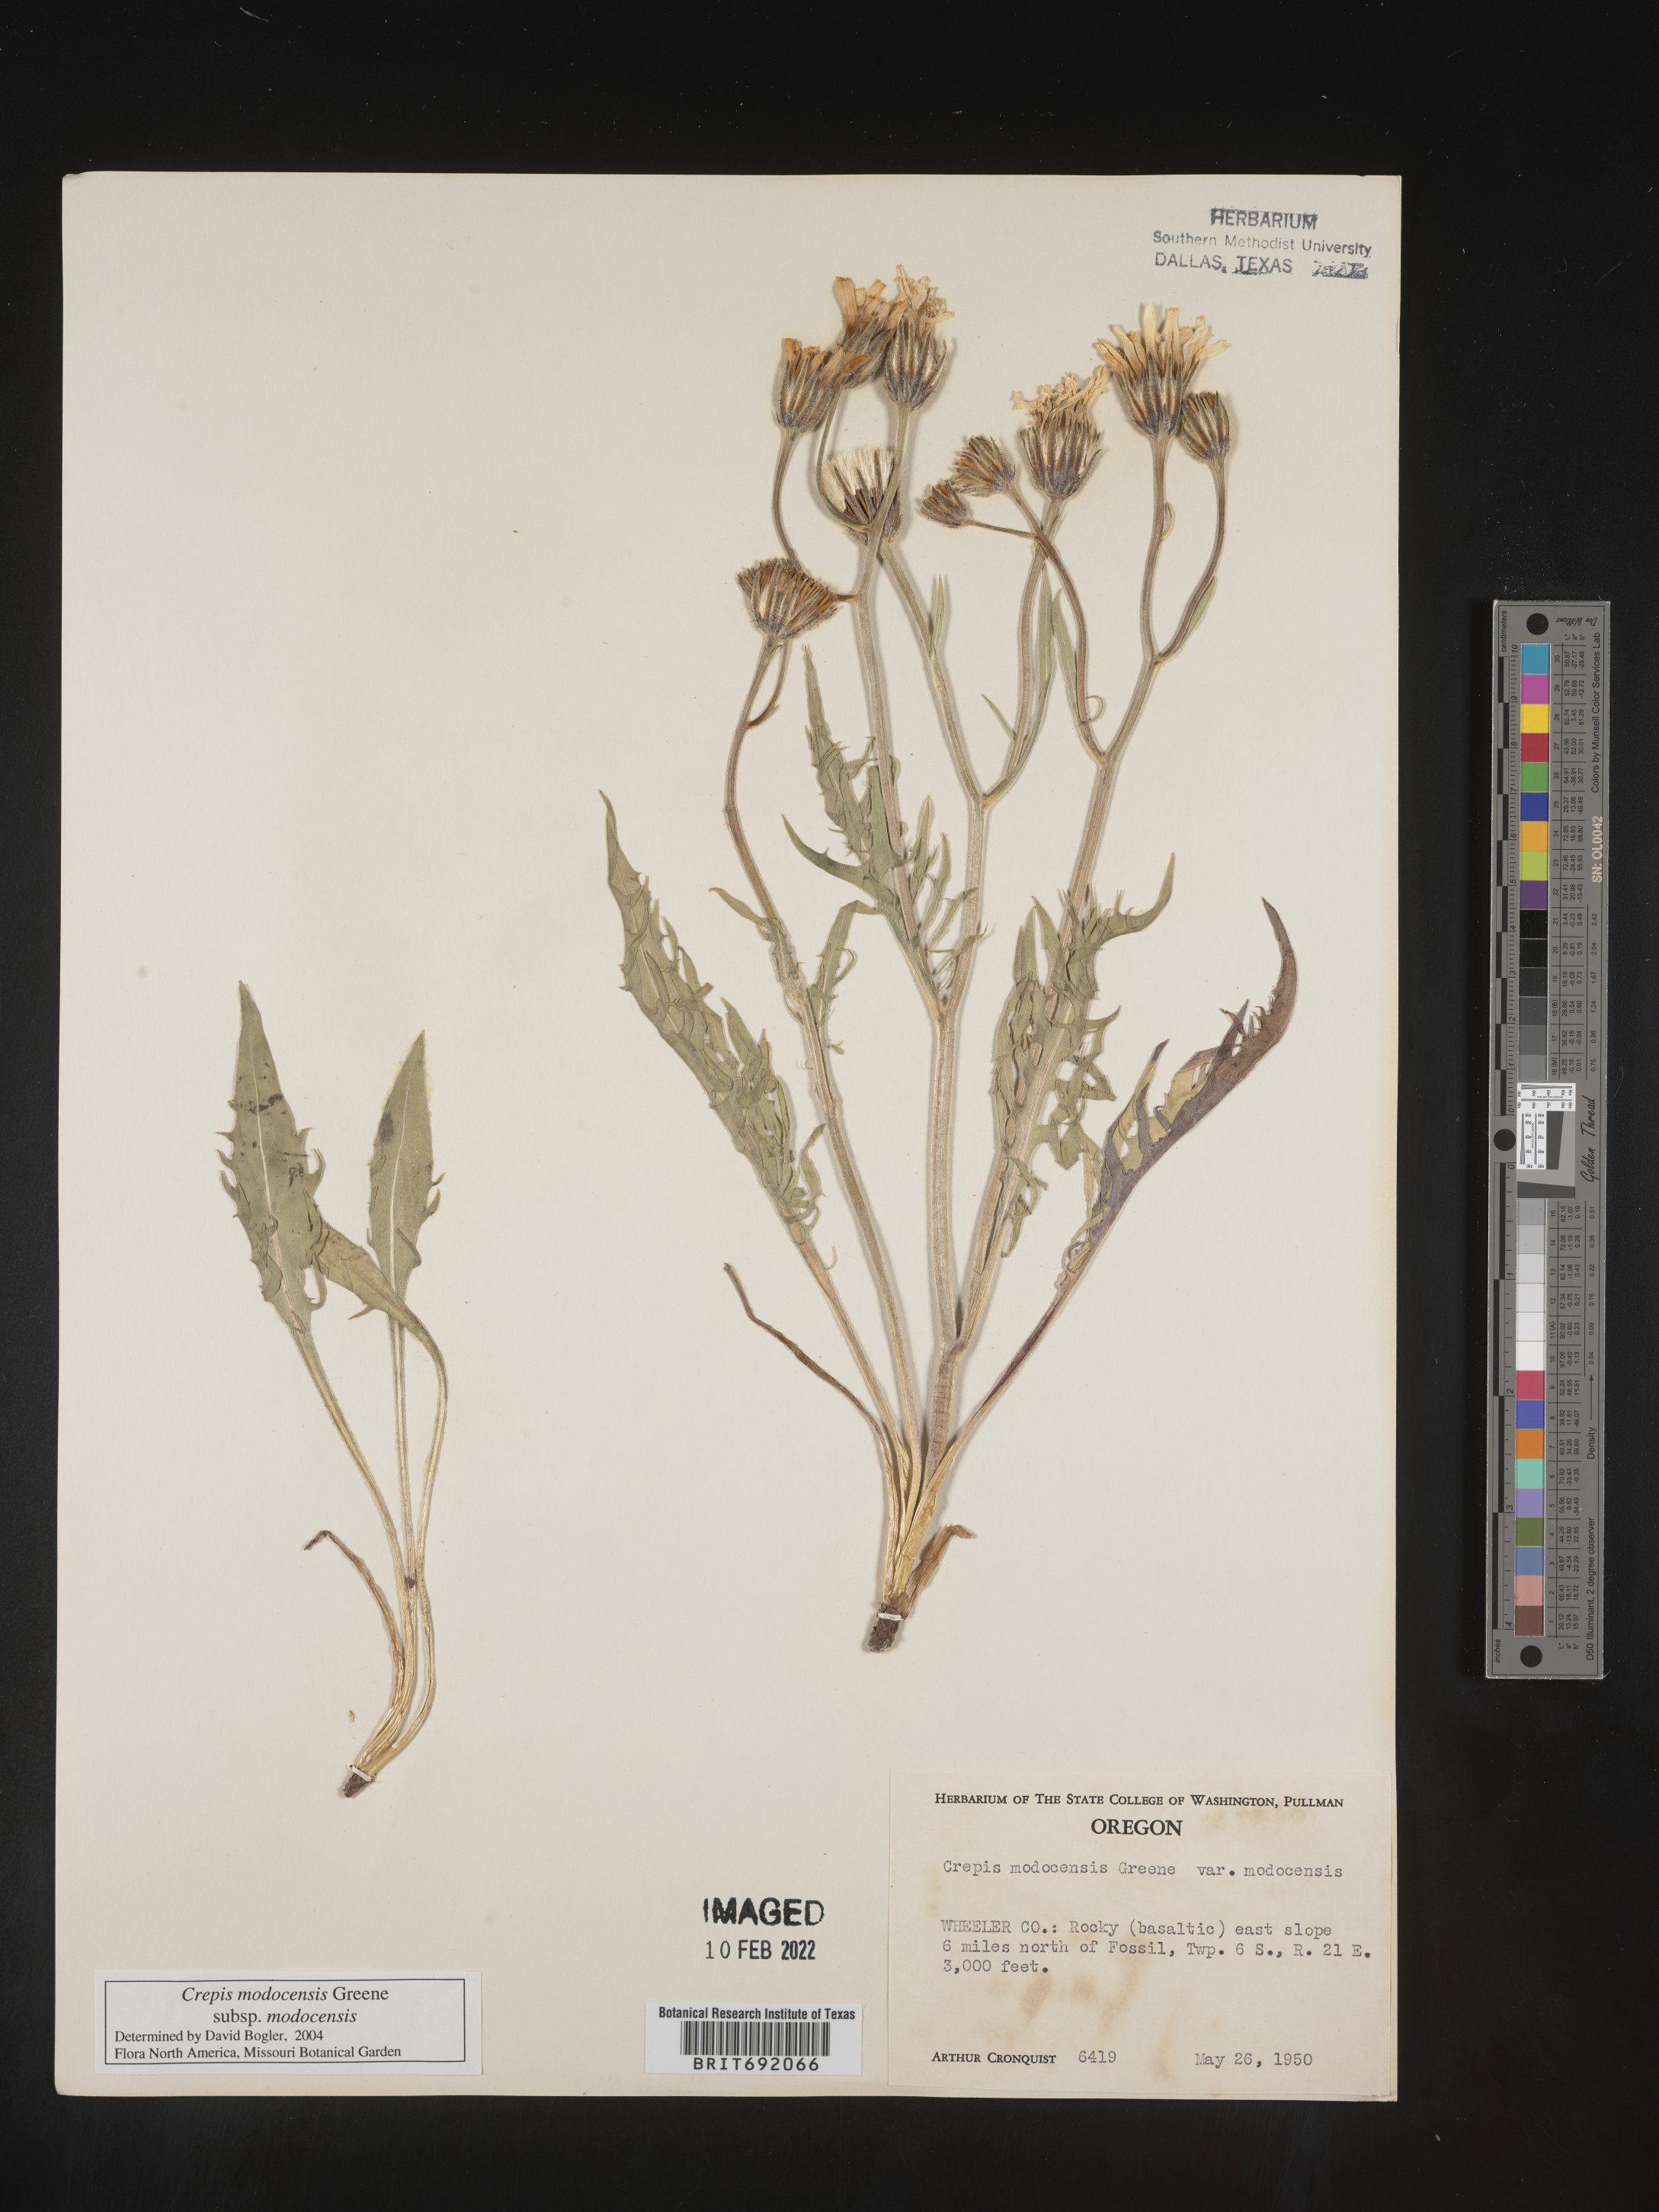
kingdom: Plantae
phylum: Tracheophyta
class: Magnoliopsida
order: Asterales
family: Asteraceae
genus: Crepis
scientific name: Crepis
